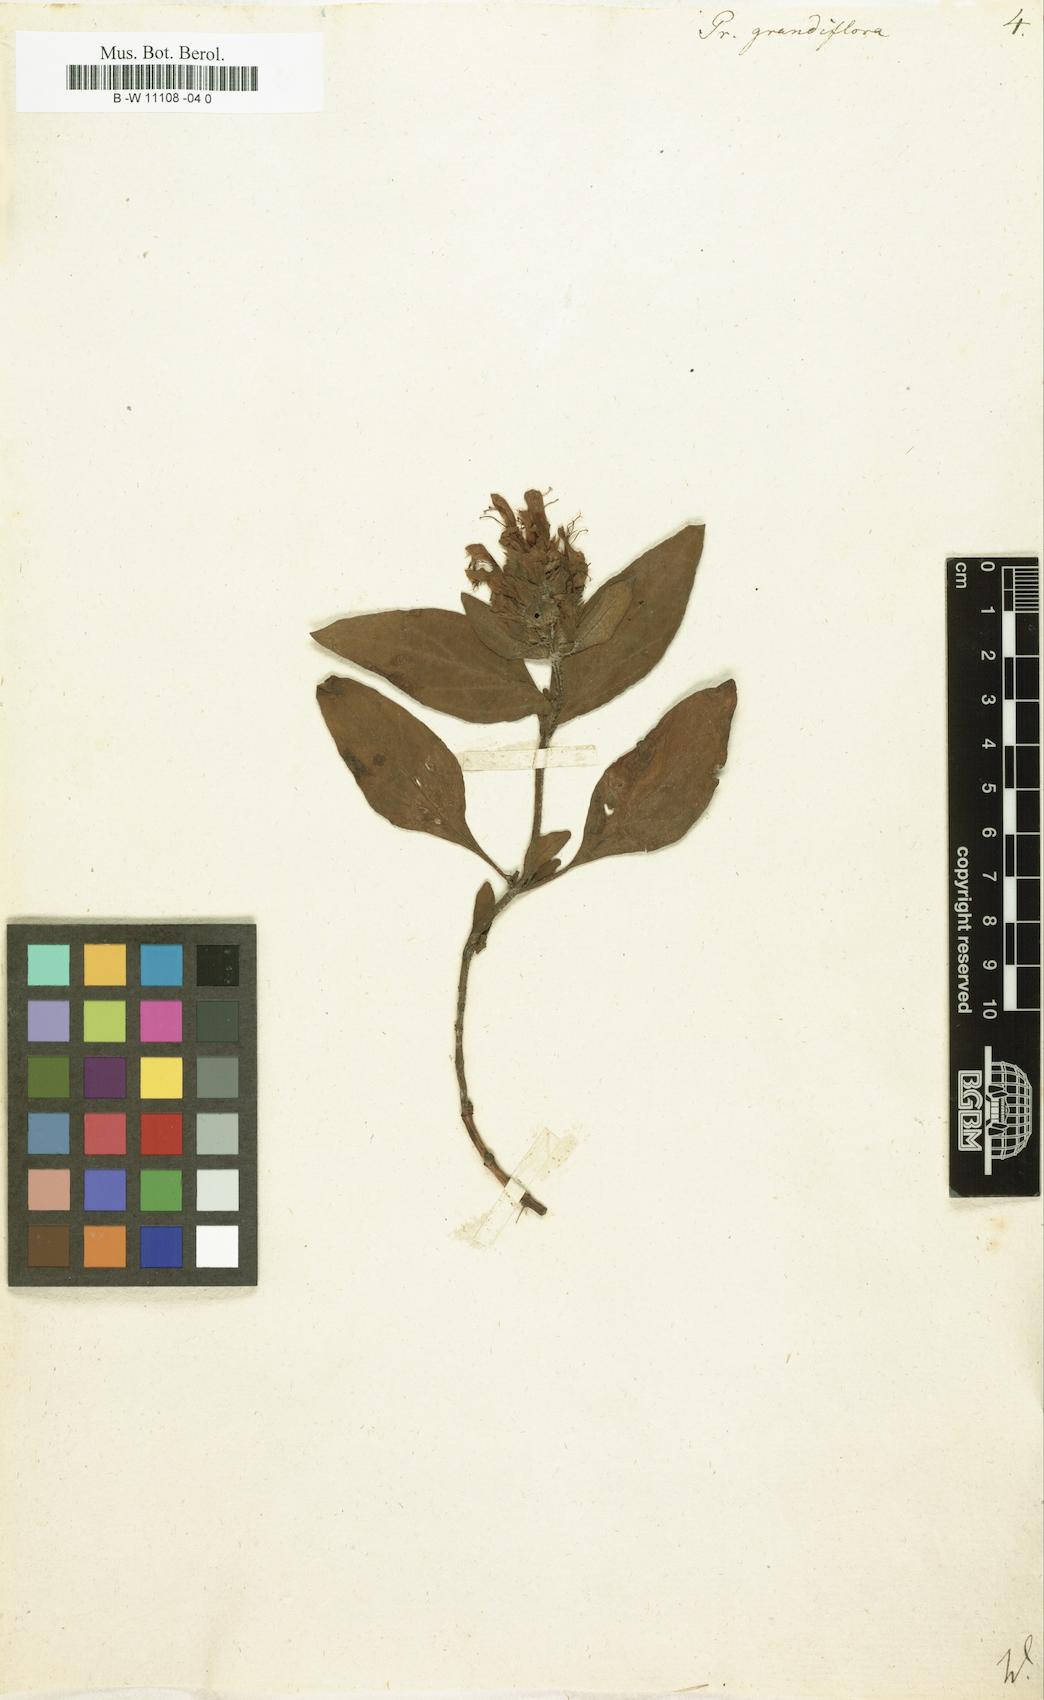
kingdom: Plantae
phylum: Tracheophyta
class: Magnoliopsida
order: Lamiales
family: Lamiaceae
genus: Prunella
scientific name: Prunella grandiflora
